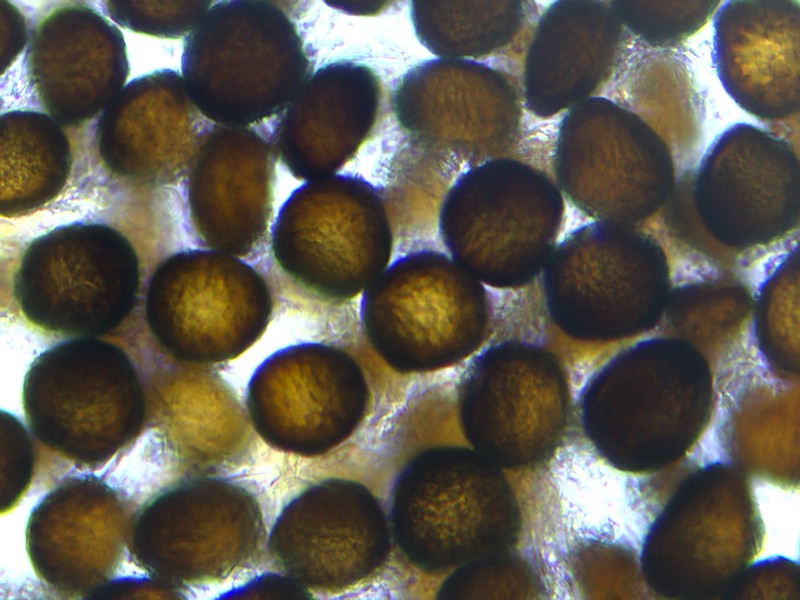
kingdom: Fungi
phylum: Basidiomycota
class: Ustilaginomycetes
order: Ustilaginales
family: Anthracoideaceae
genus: Anthracoidea
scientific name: Anthracoidea arenariae
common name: sandstar-brand
